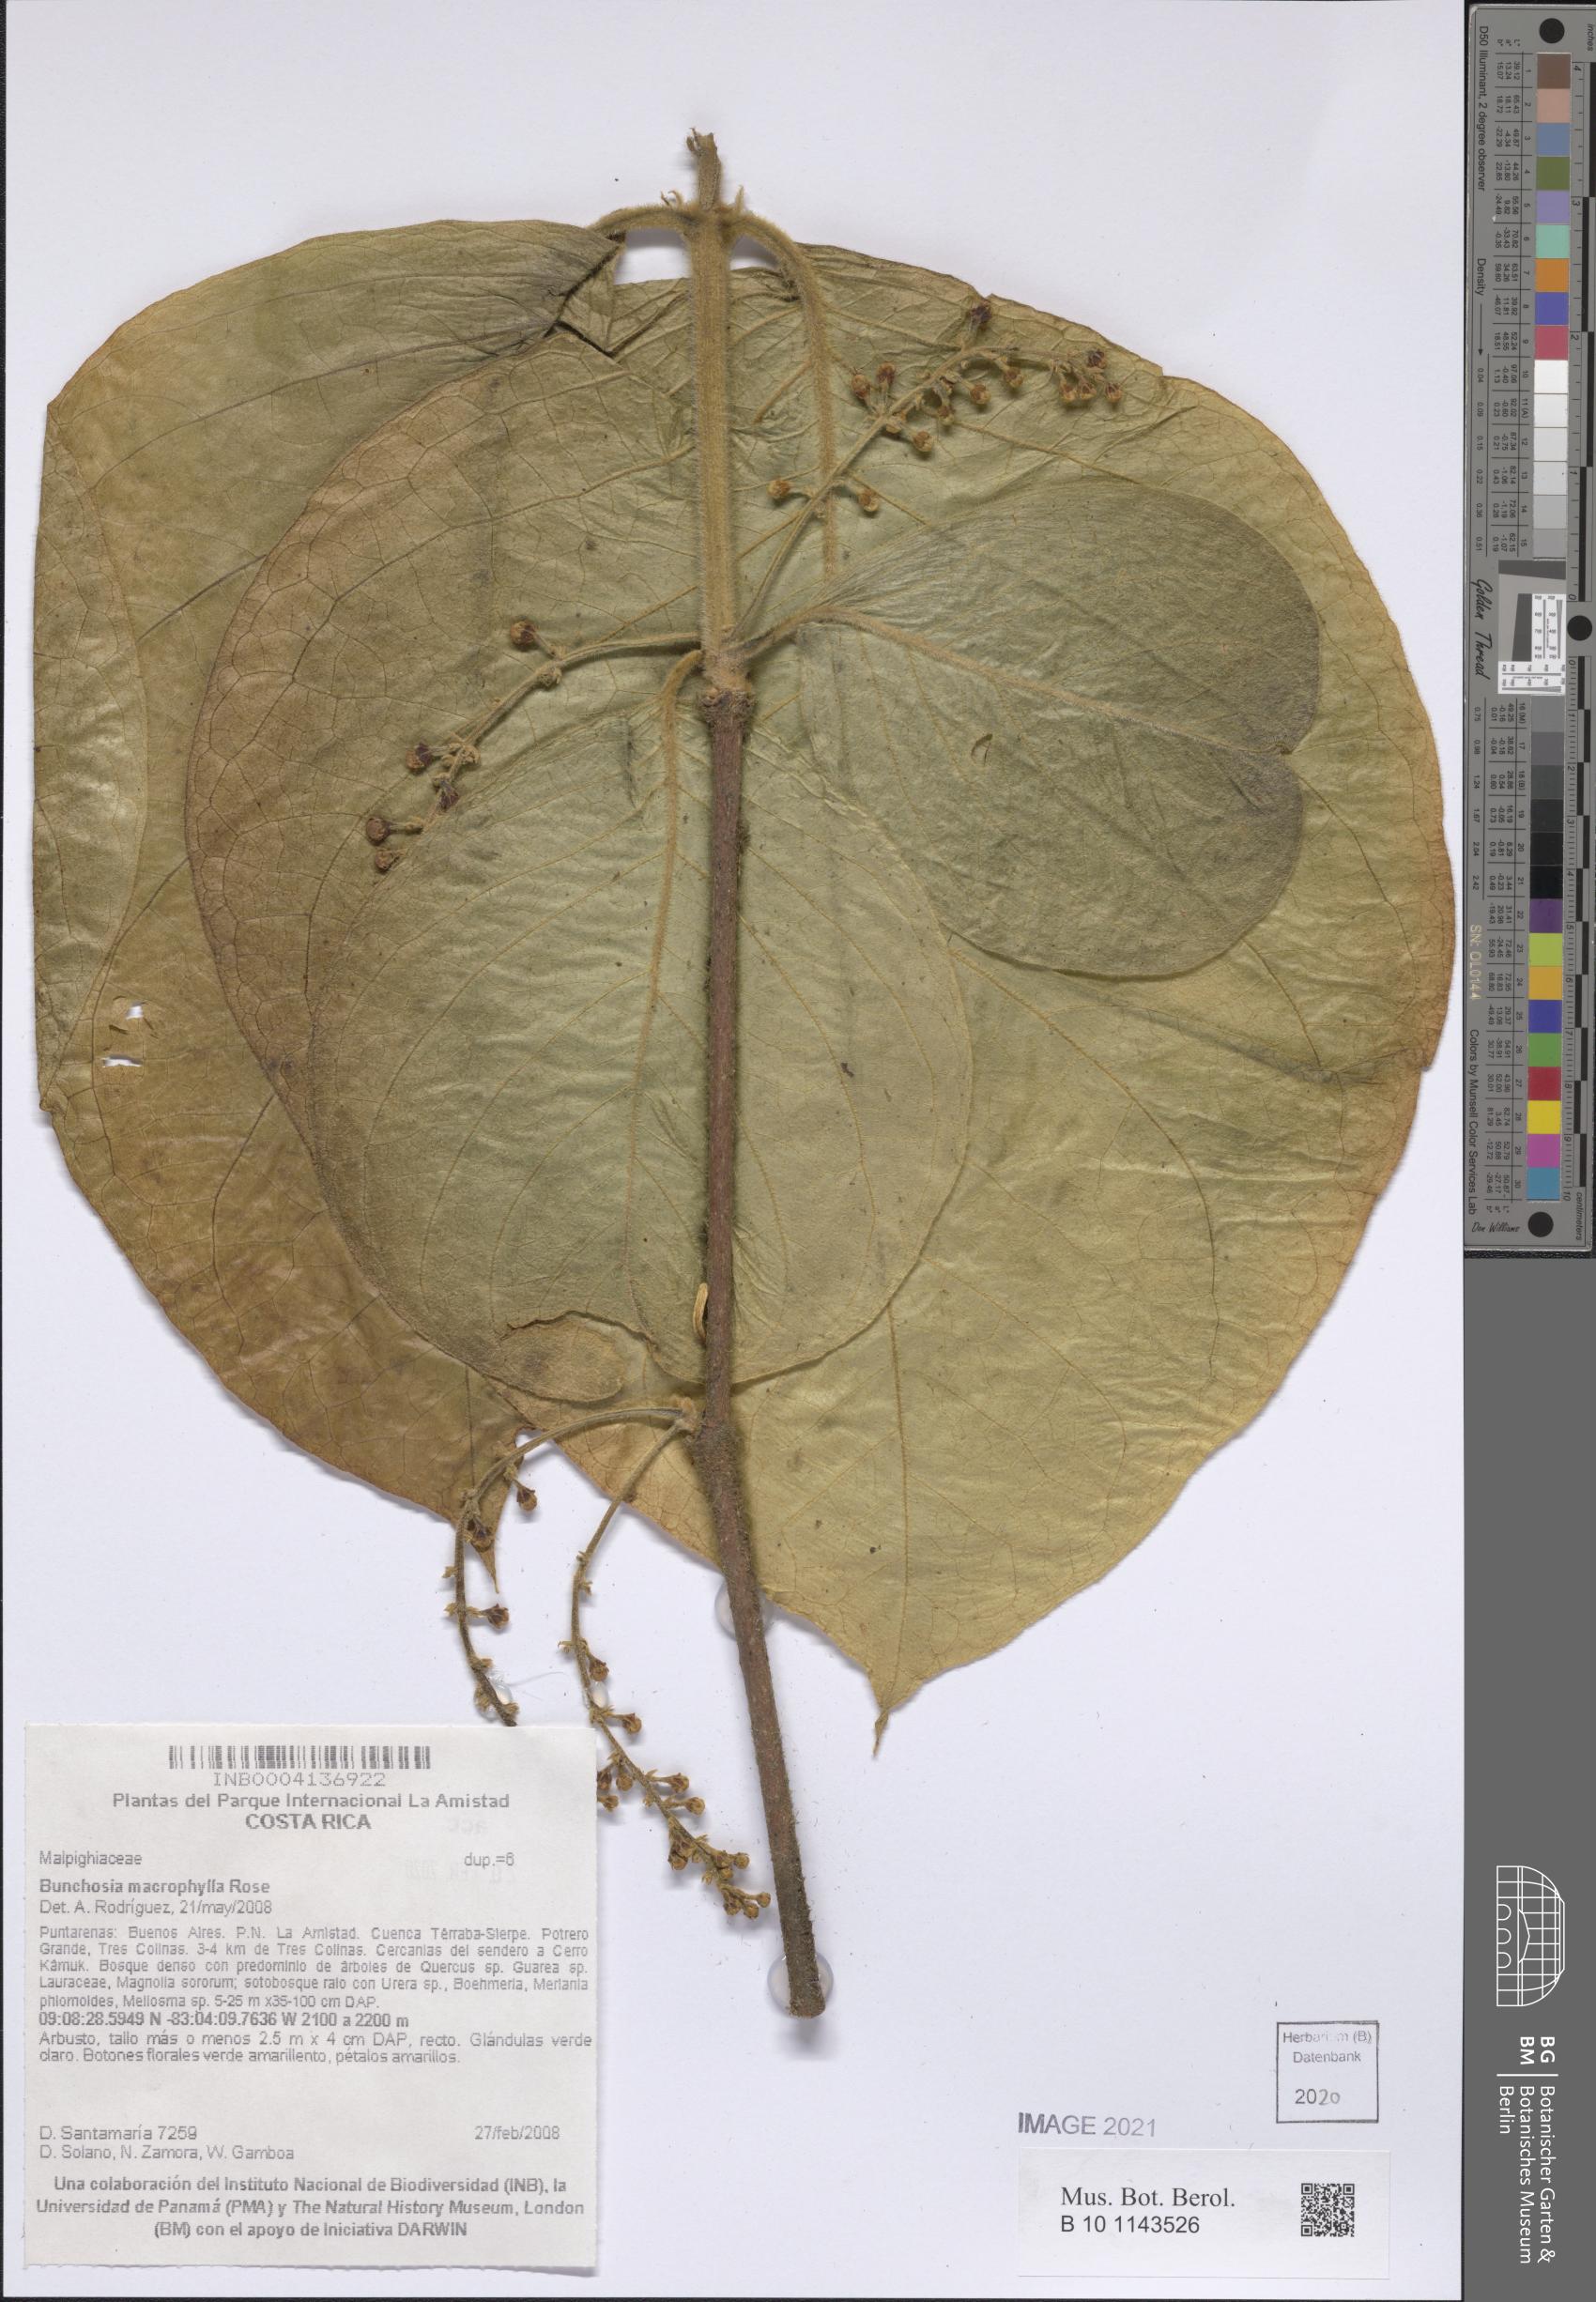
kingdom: Plantae
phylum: Tracheophyta
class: Magnoliopsida
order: Malpighiales
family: Malpighiaceae
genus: Bunchosia
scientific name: Bunchosia macrophylla
